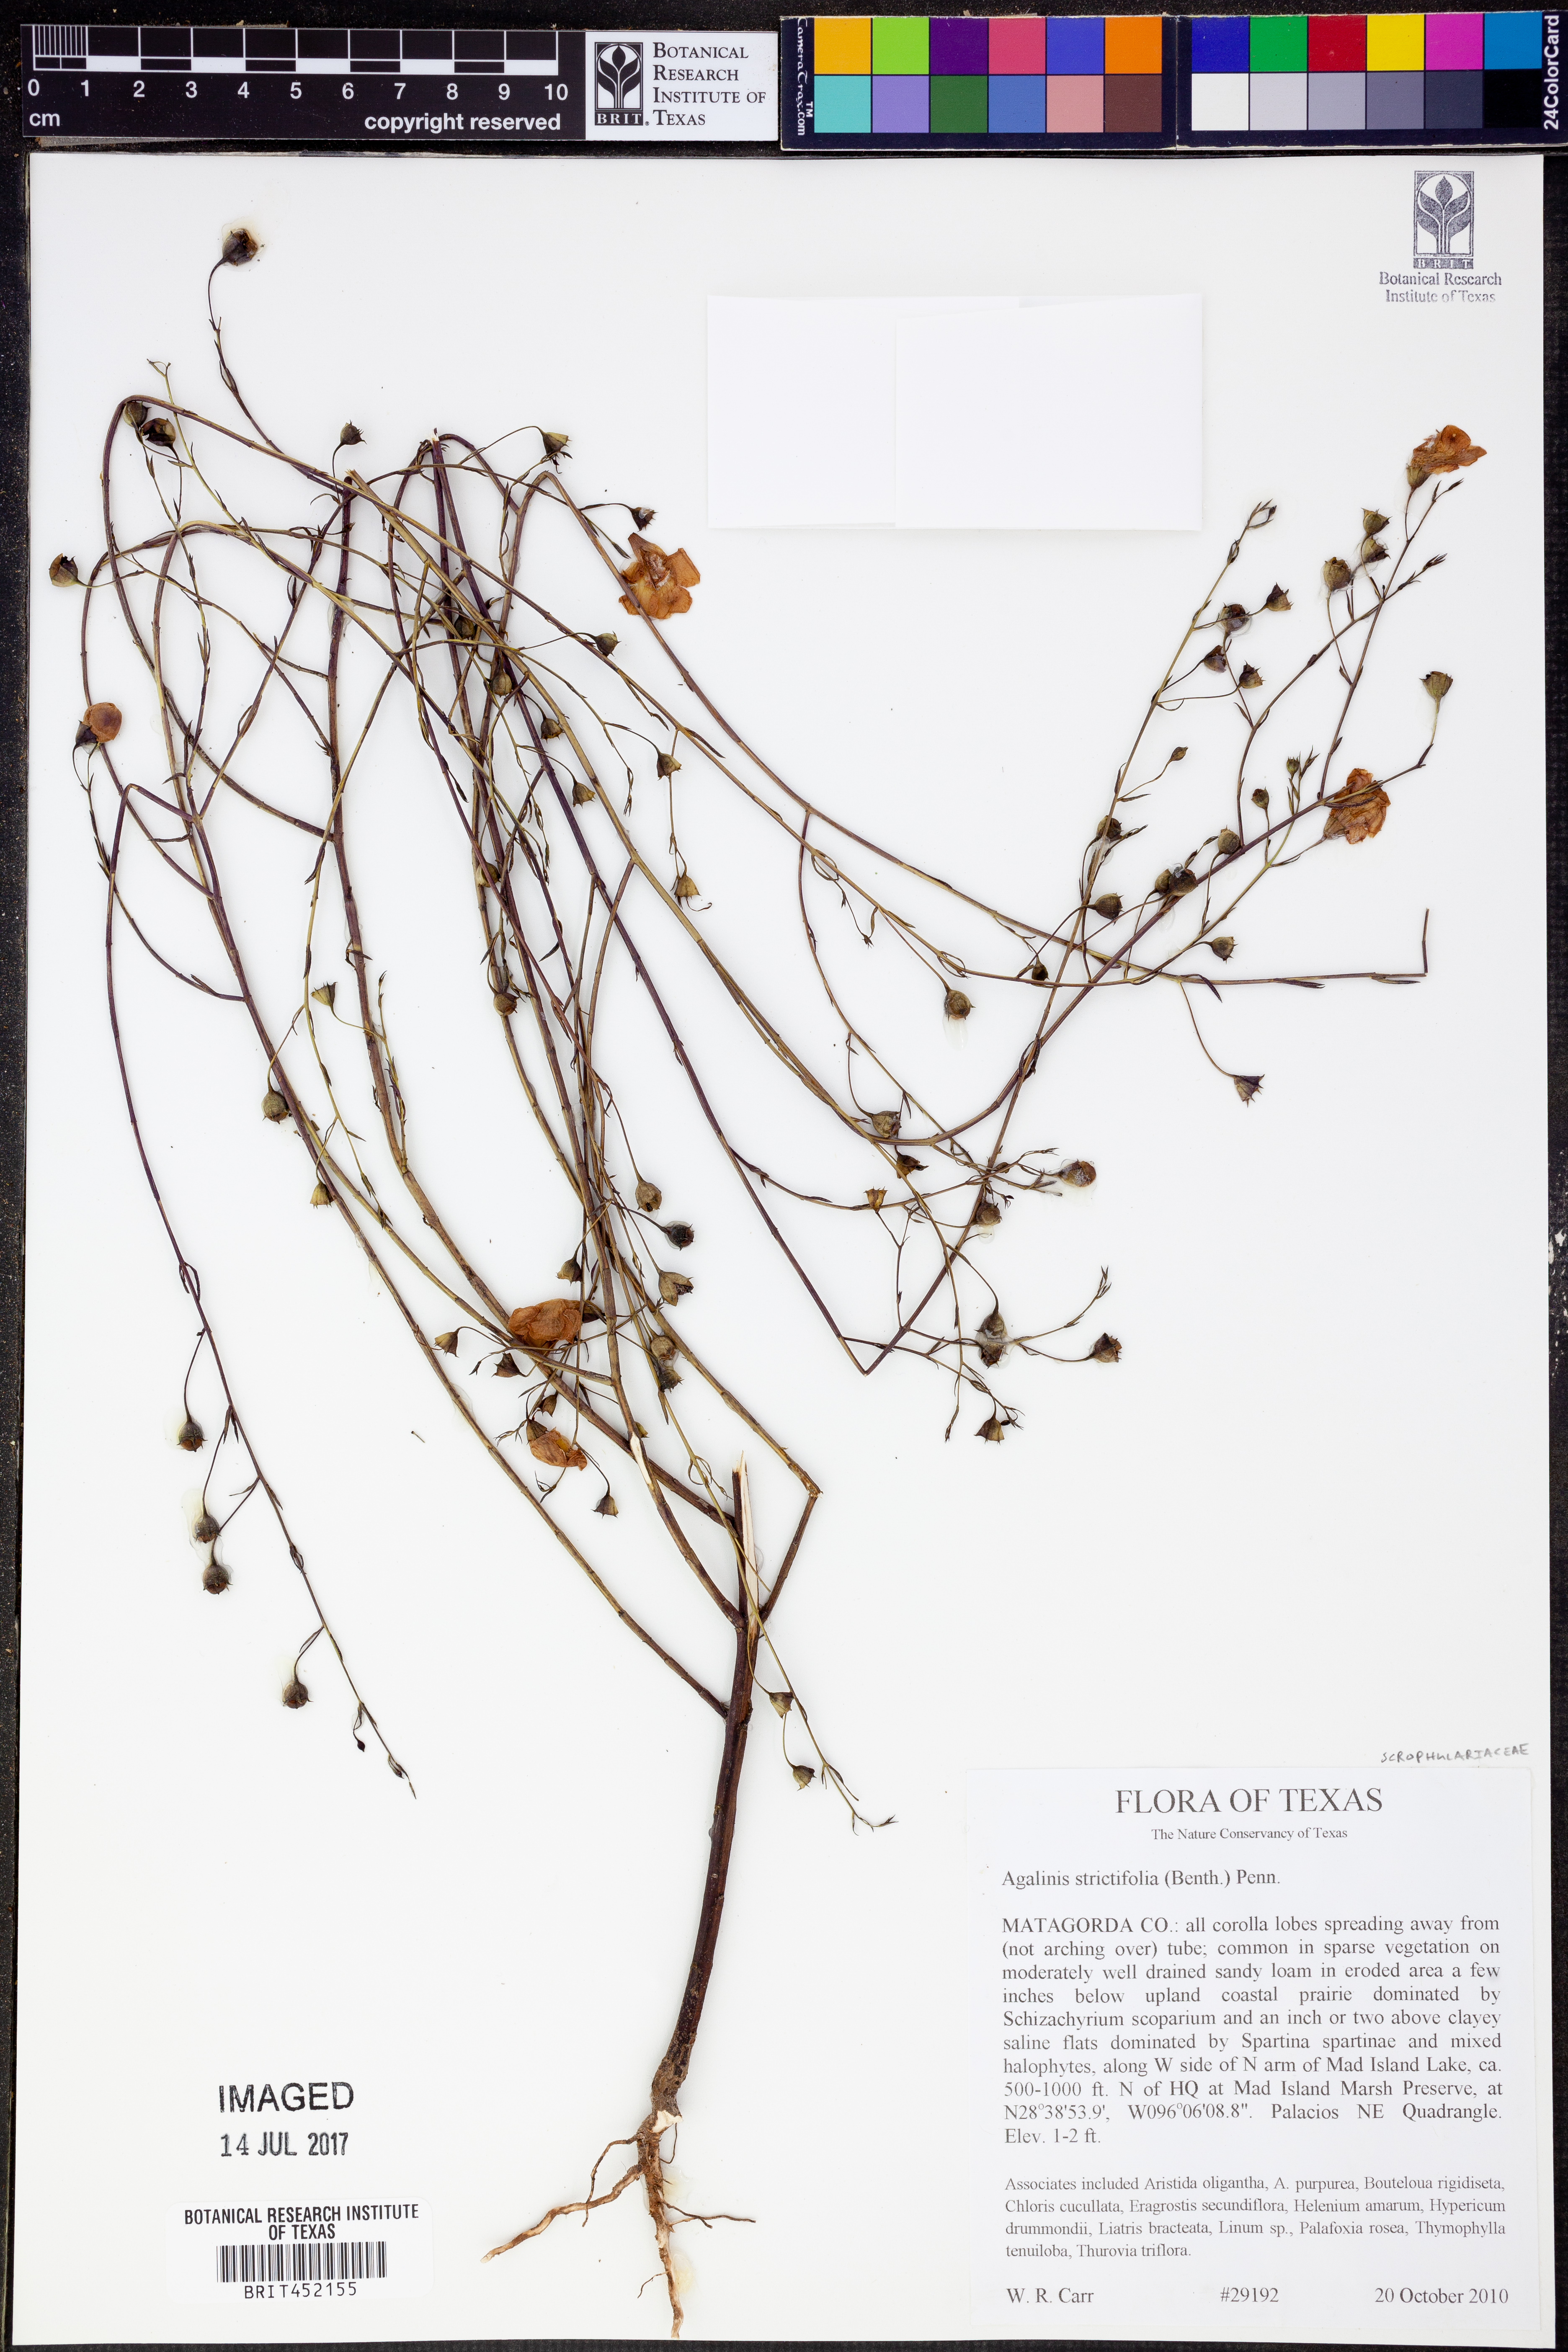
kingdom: Plantae
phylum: Tracheophyta
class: Magnoliopsida
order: Lamiales
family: Orobanchaceae
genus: Agalinis
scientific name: Agalinis strictifolia
